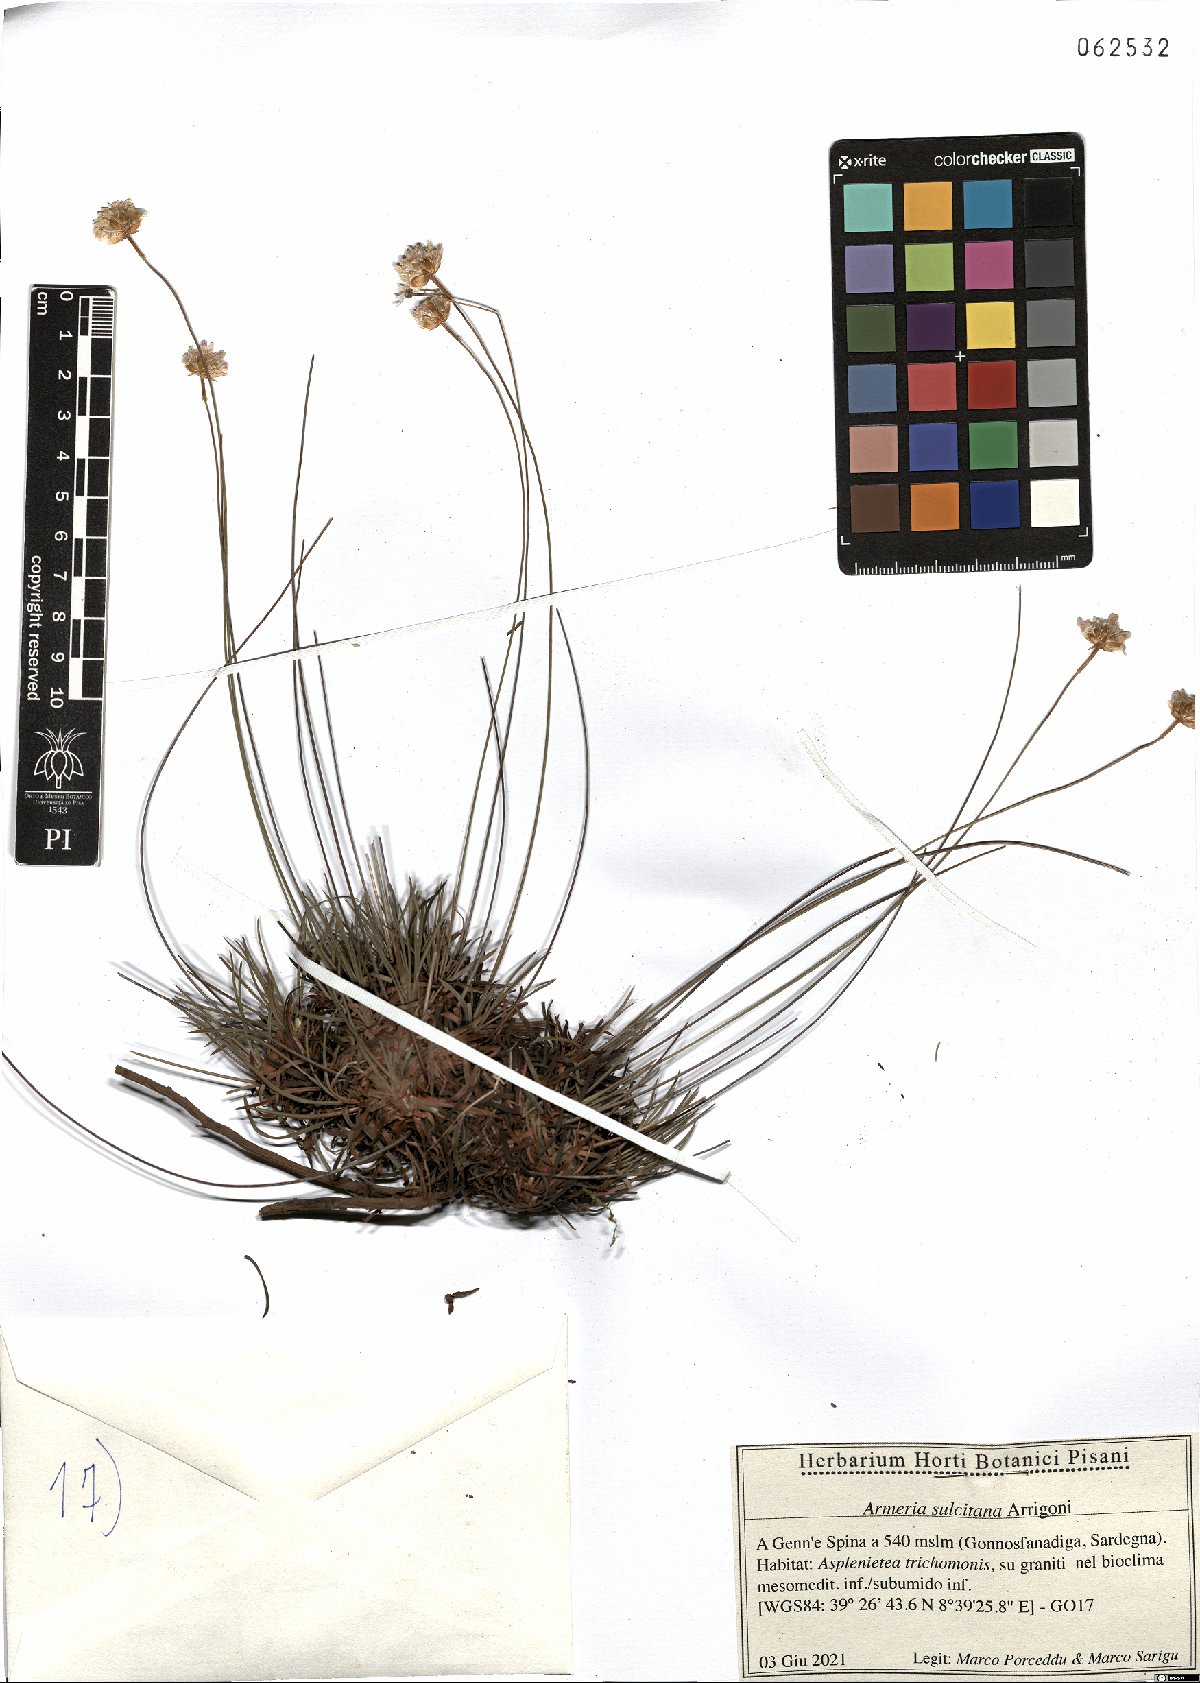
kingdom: Plantae
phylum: Tracheophyta
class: Magnoliopsida
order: Caryophyllales
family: Plumbaginaceae
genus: Armeria
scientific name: Armeria sulcitana
